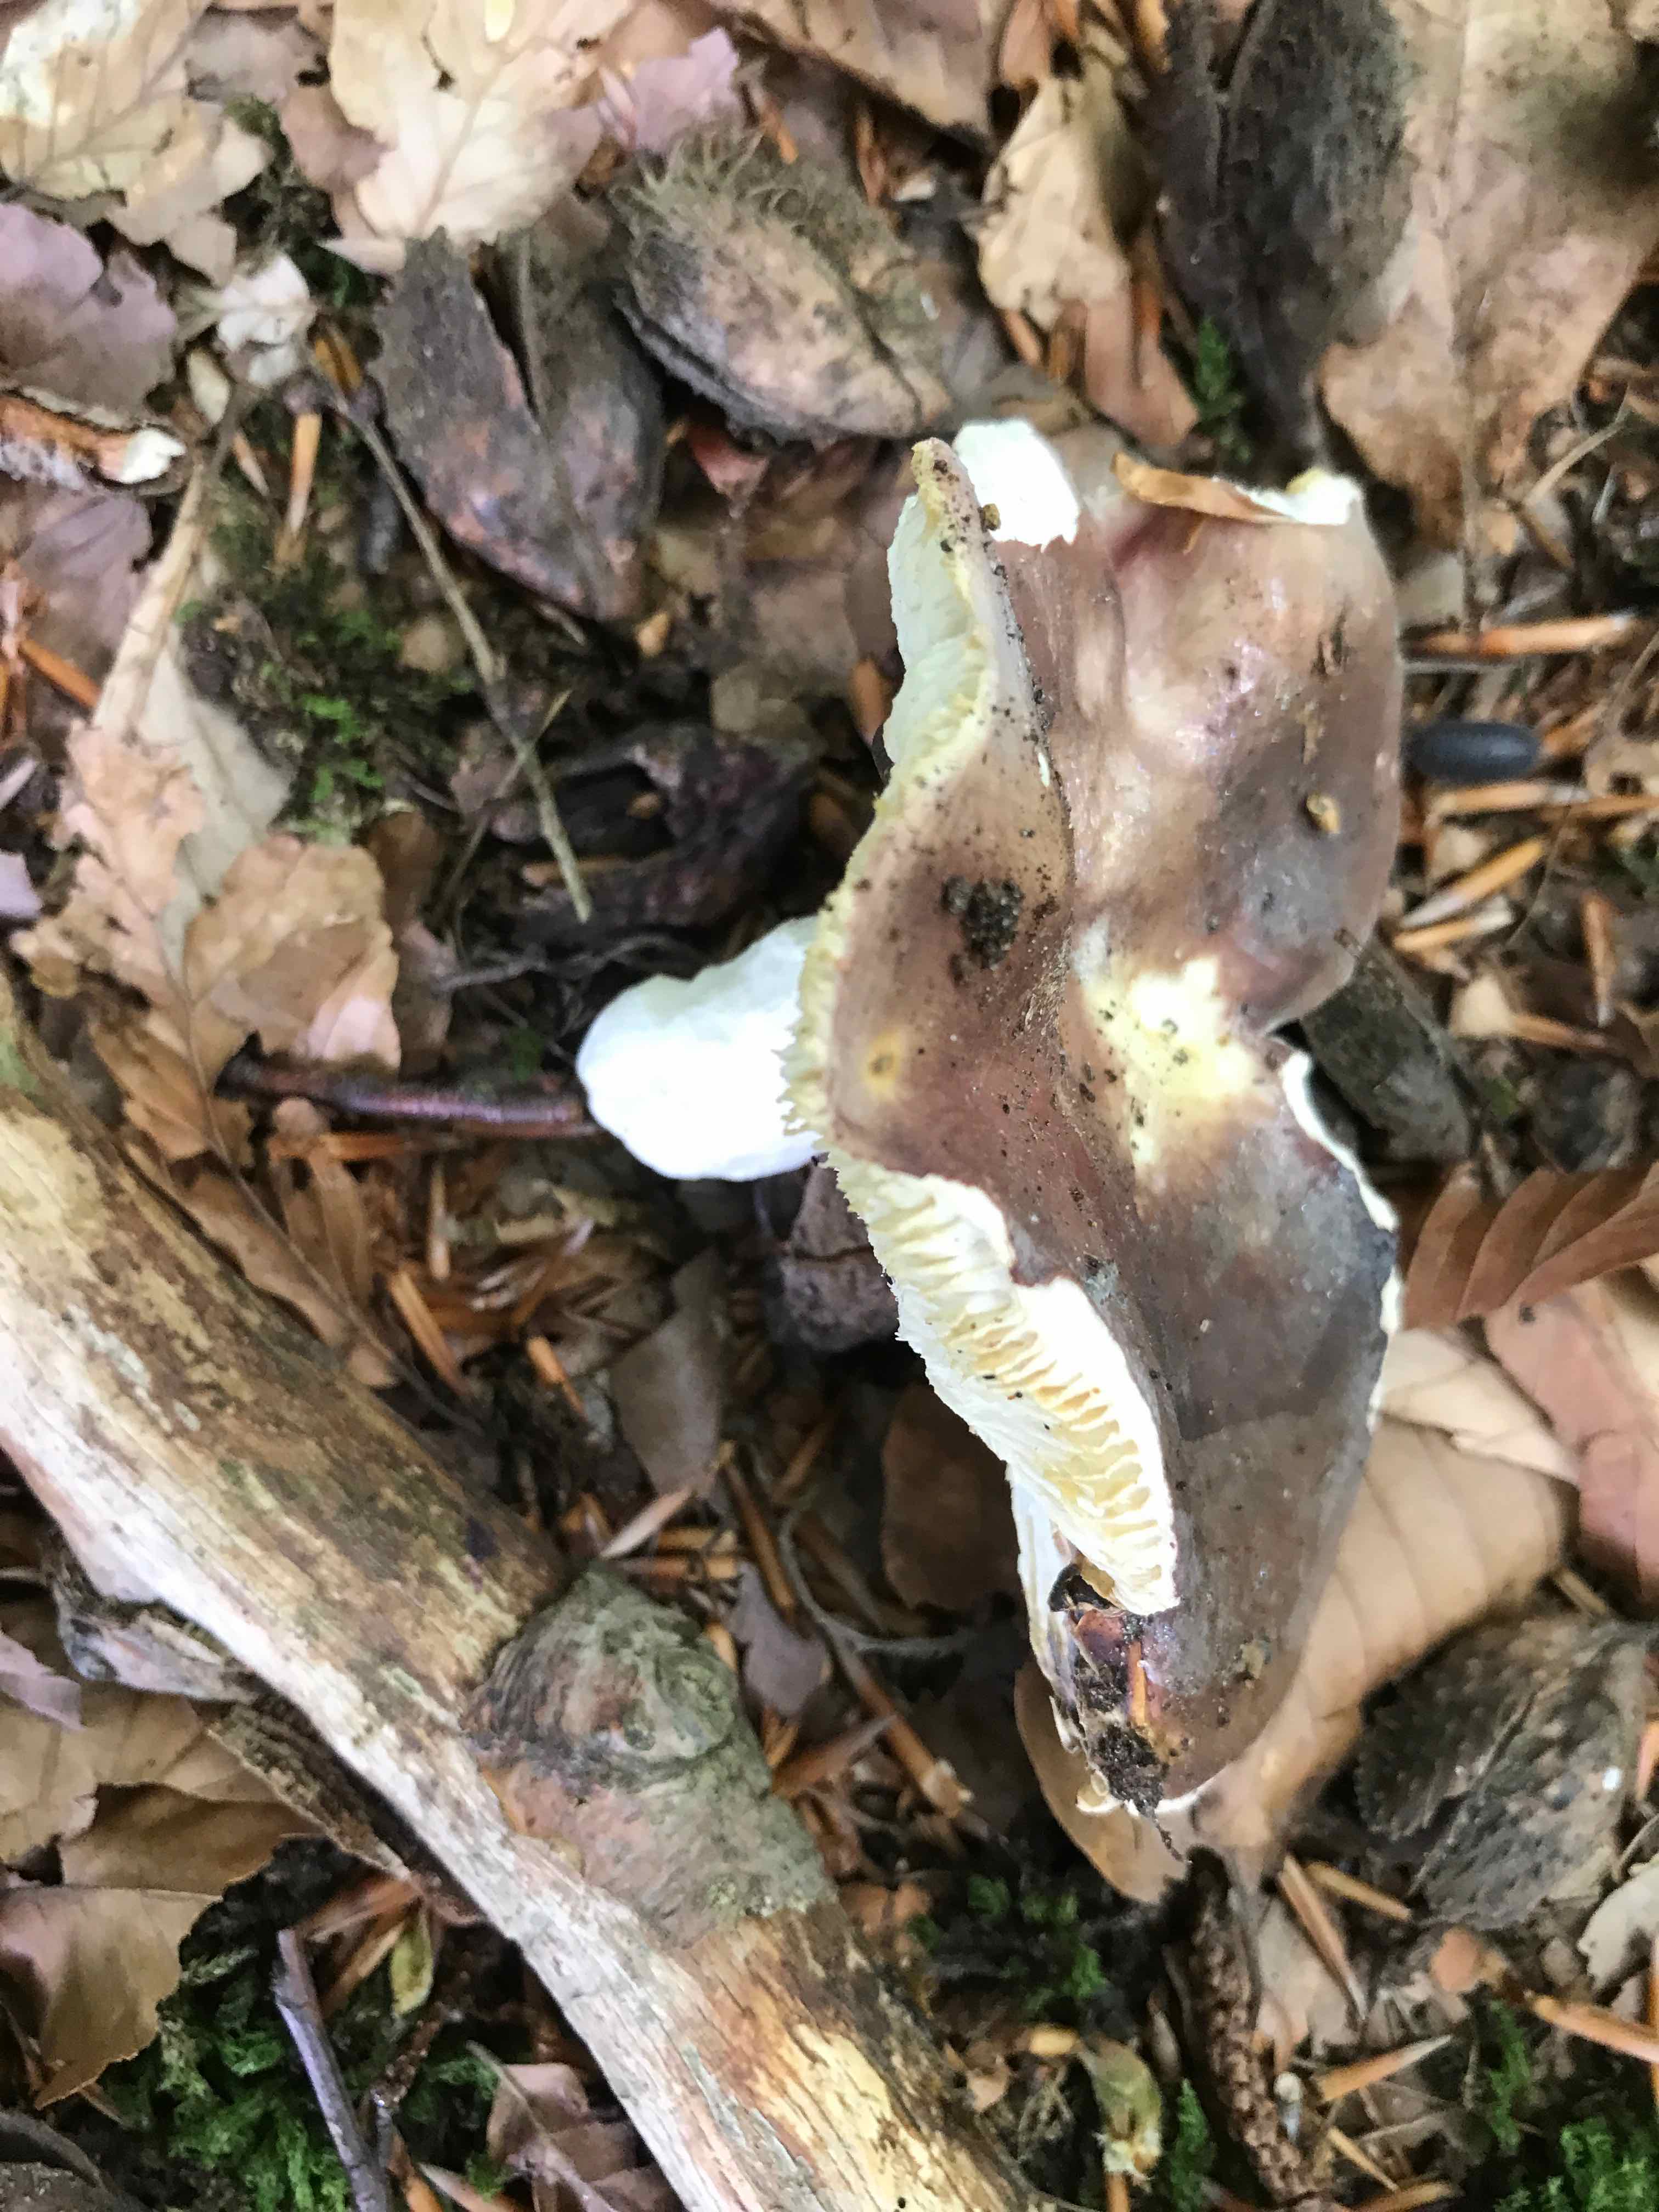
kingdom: Fungi
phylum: Basidiomycota
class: Agaricomycetes
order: Russulales
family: Russulaceae
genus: Russula
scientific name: Russula
